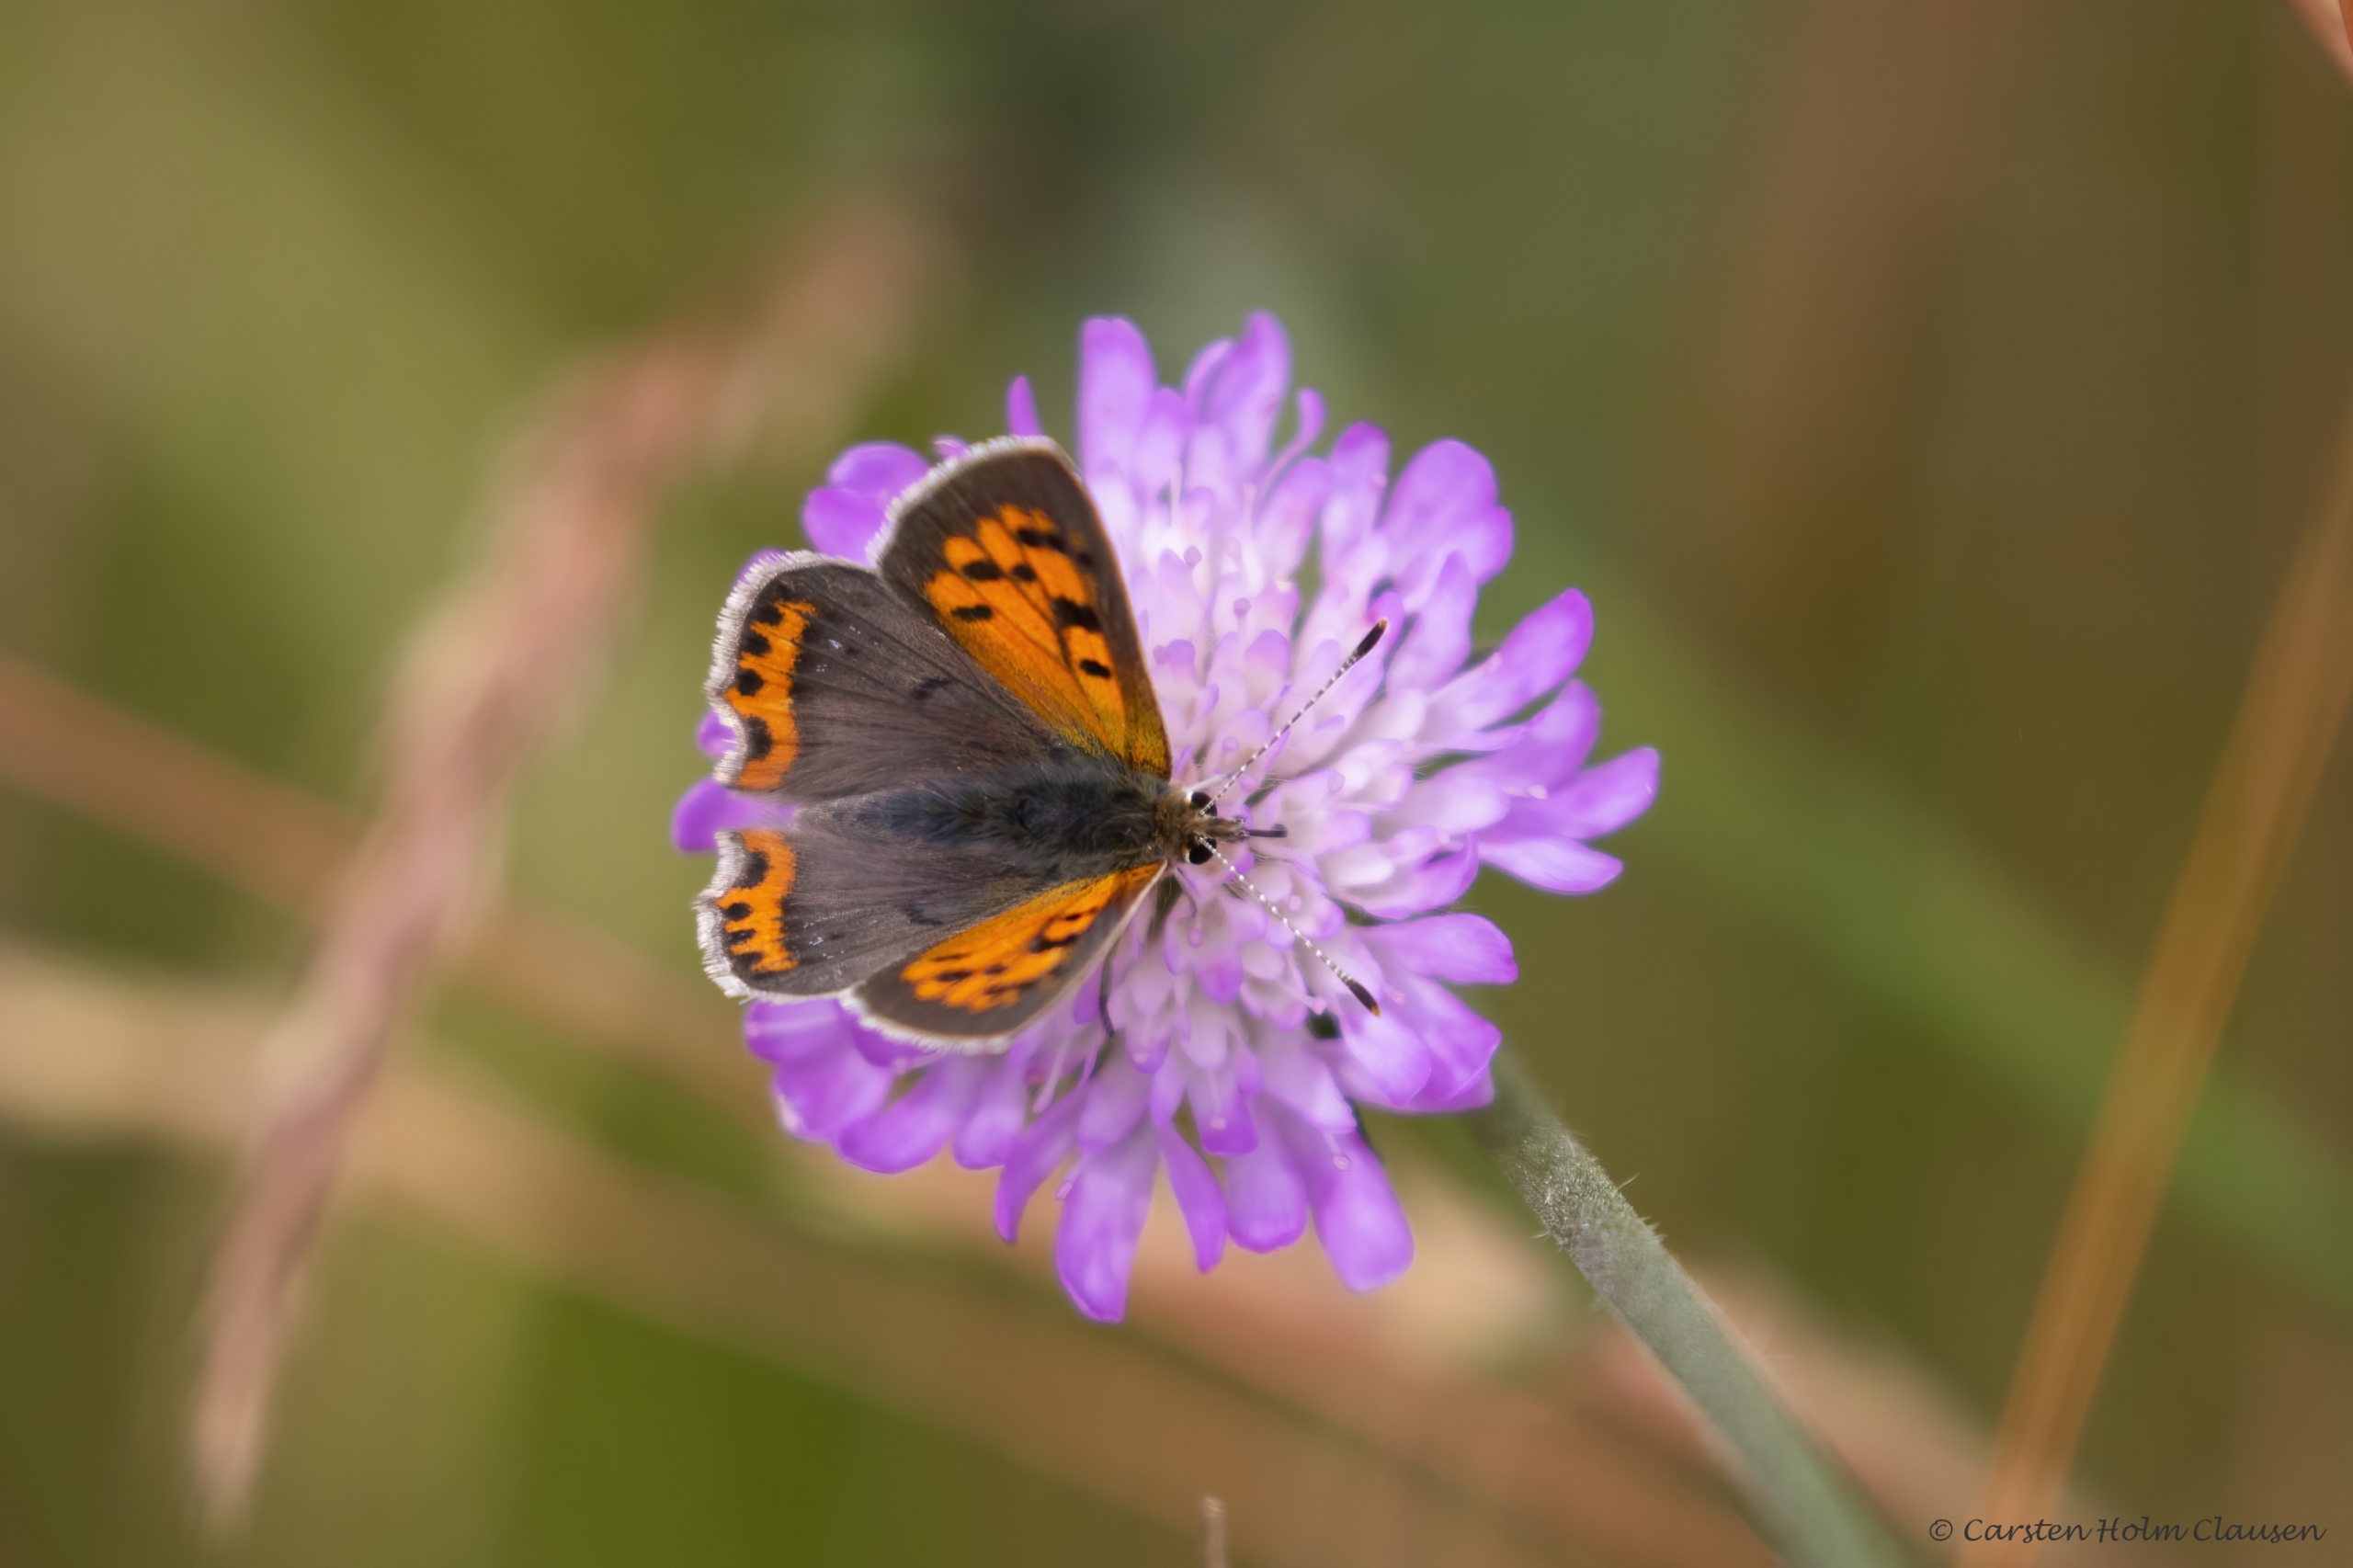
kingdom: Animalia
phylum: Arthropoda
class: Insecta
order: Lepidoptera
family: Lycaenidae
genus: Lycaena
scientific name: Lycaena phlaeas
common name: Lille ildfugl
